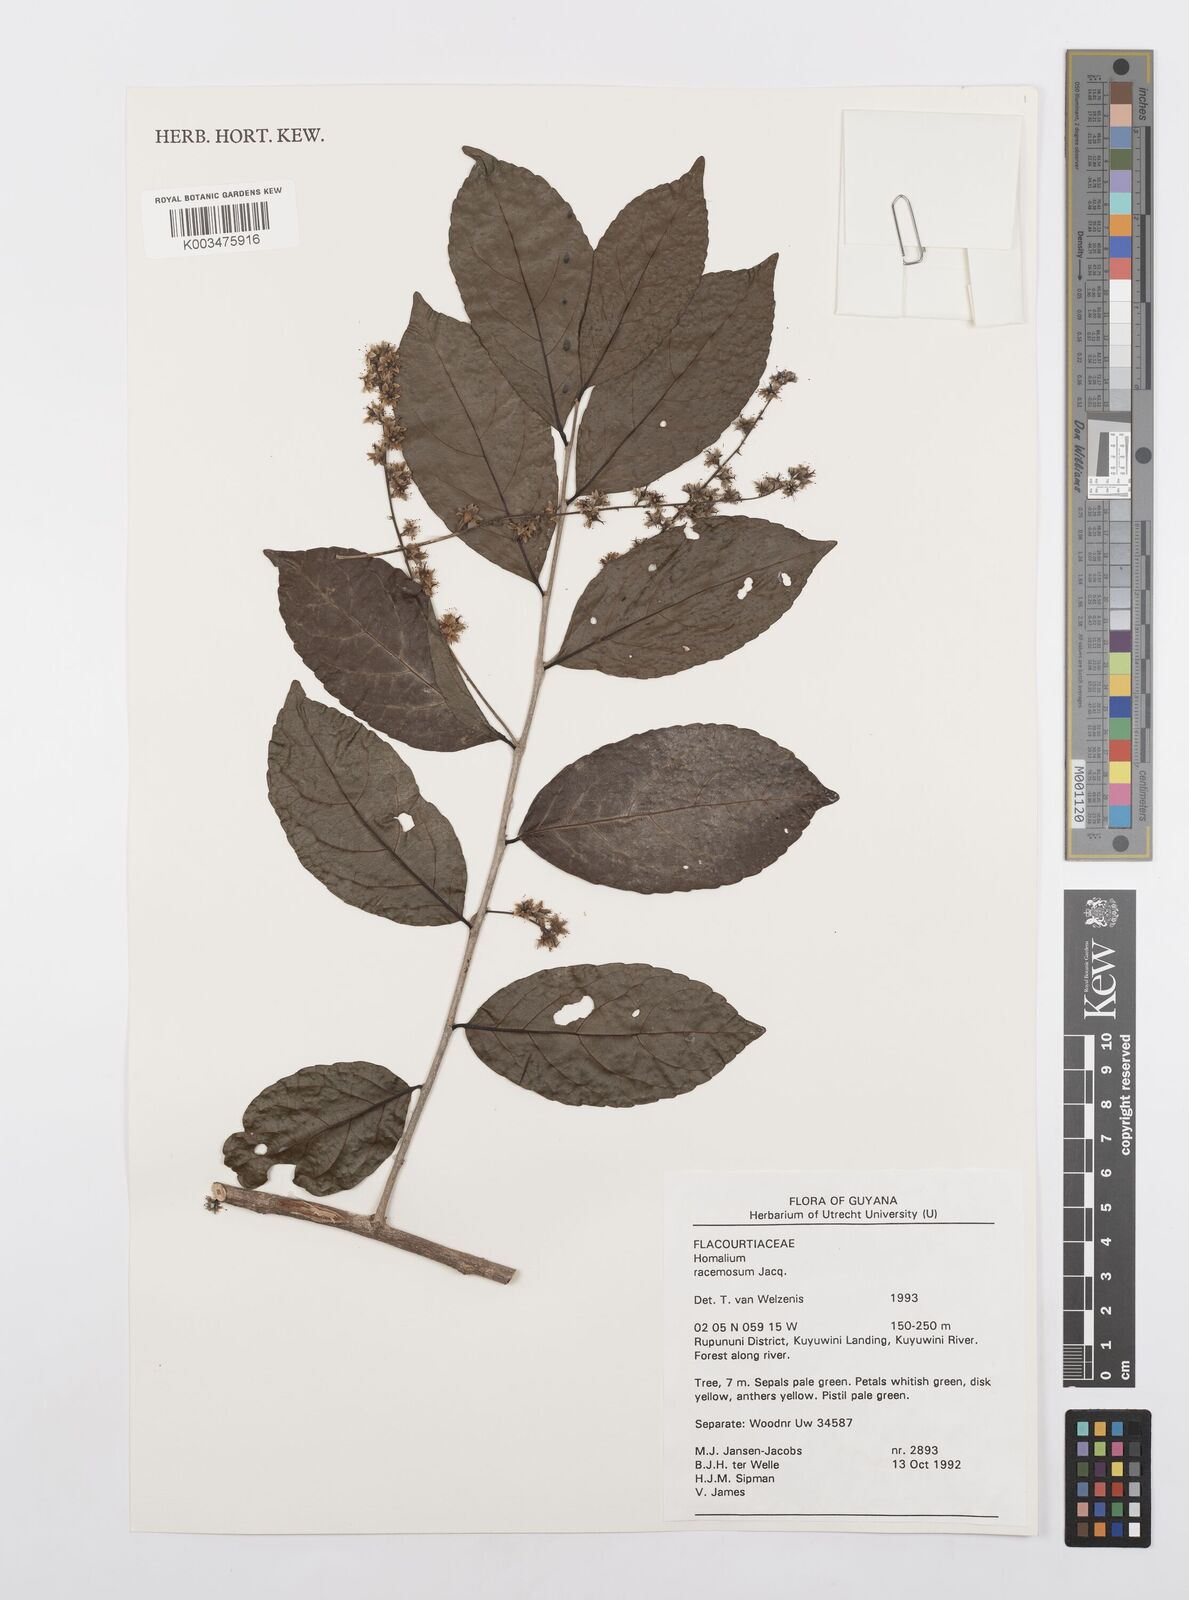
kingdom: Plantae
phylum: Tracheophyta
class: Magnoliopsida
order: Malpighiales
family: Salicaceae
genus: Homalium
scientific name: Homalium racemosum
